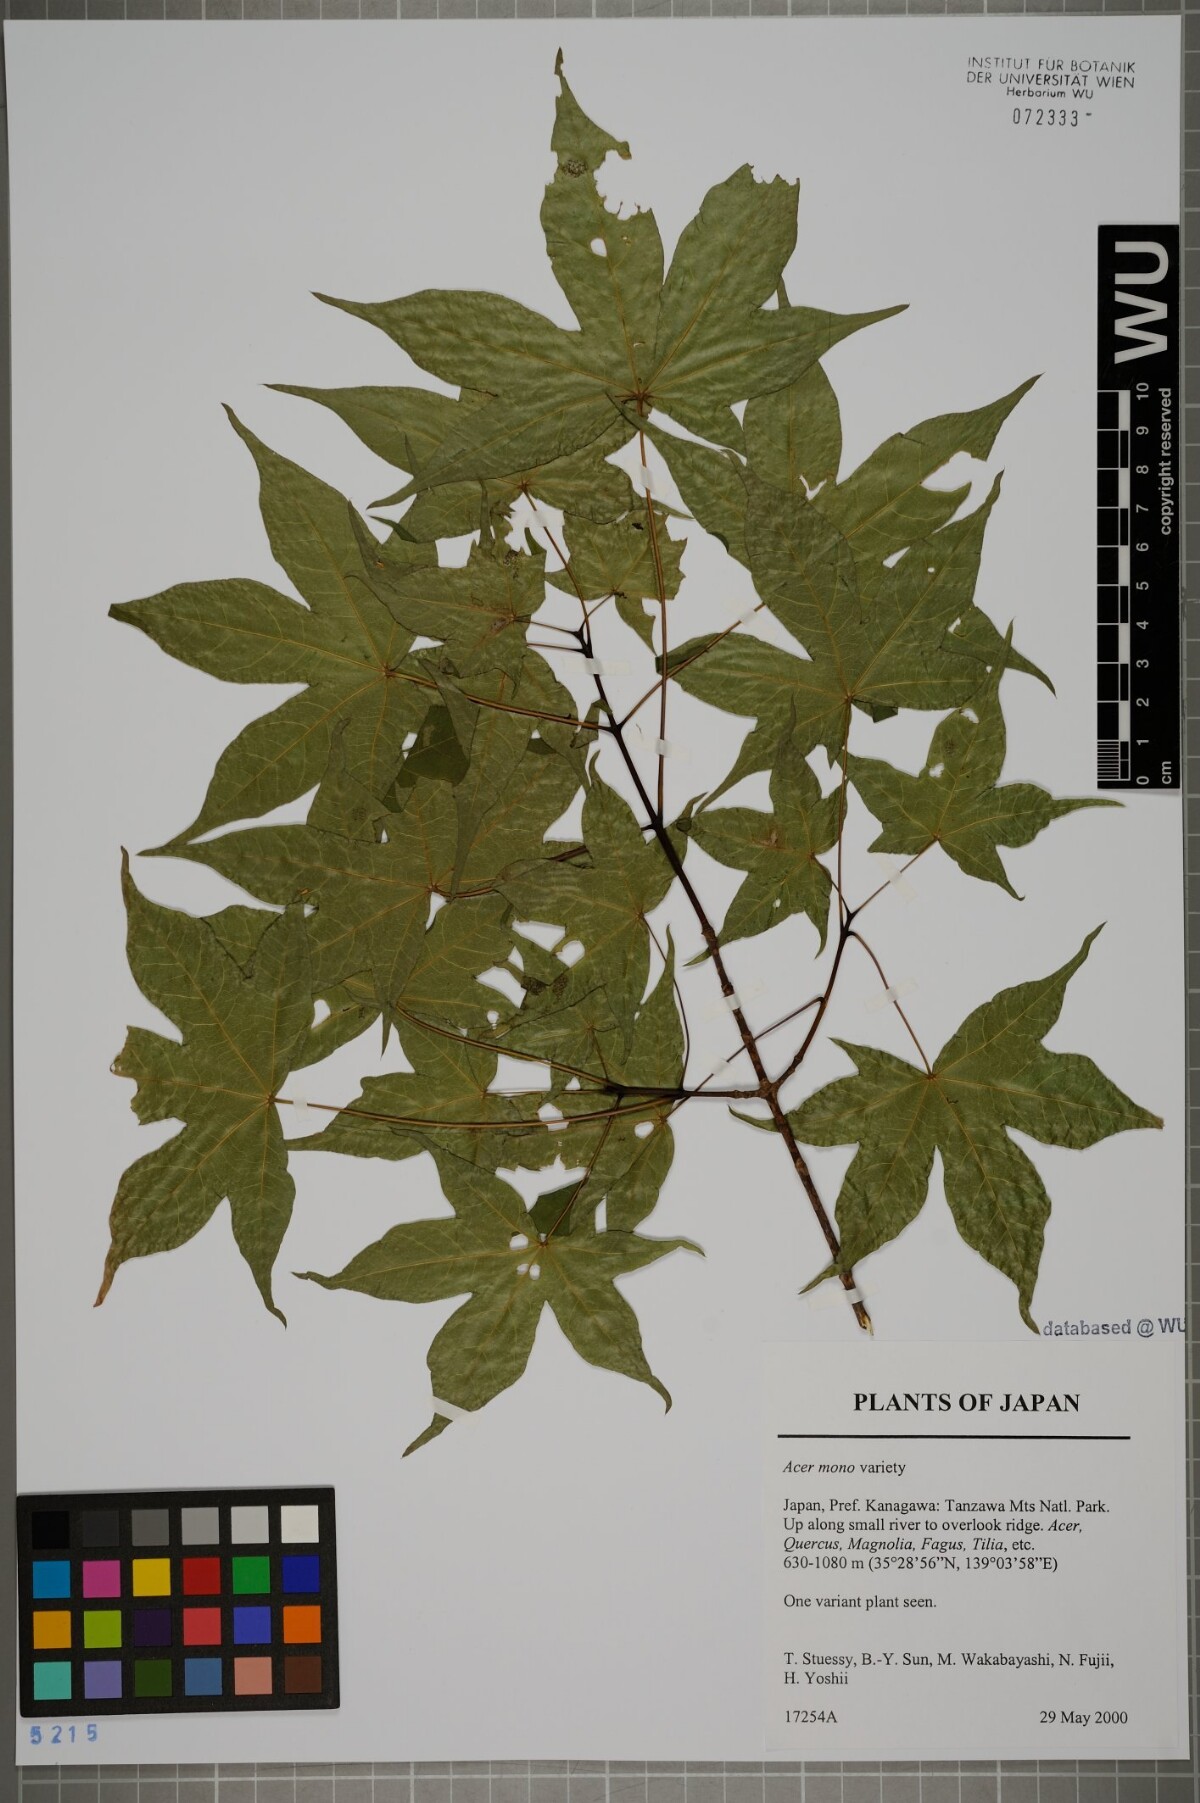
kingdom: Plantae
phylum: Tracheophyta
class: Magnoliopsida
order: Sapindales
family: Sapindaceae
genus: Acer
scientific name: Acer pictum
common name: The painted maple
